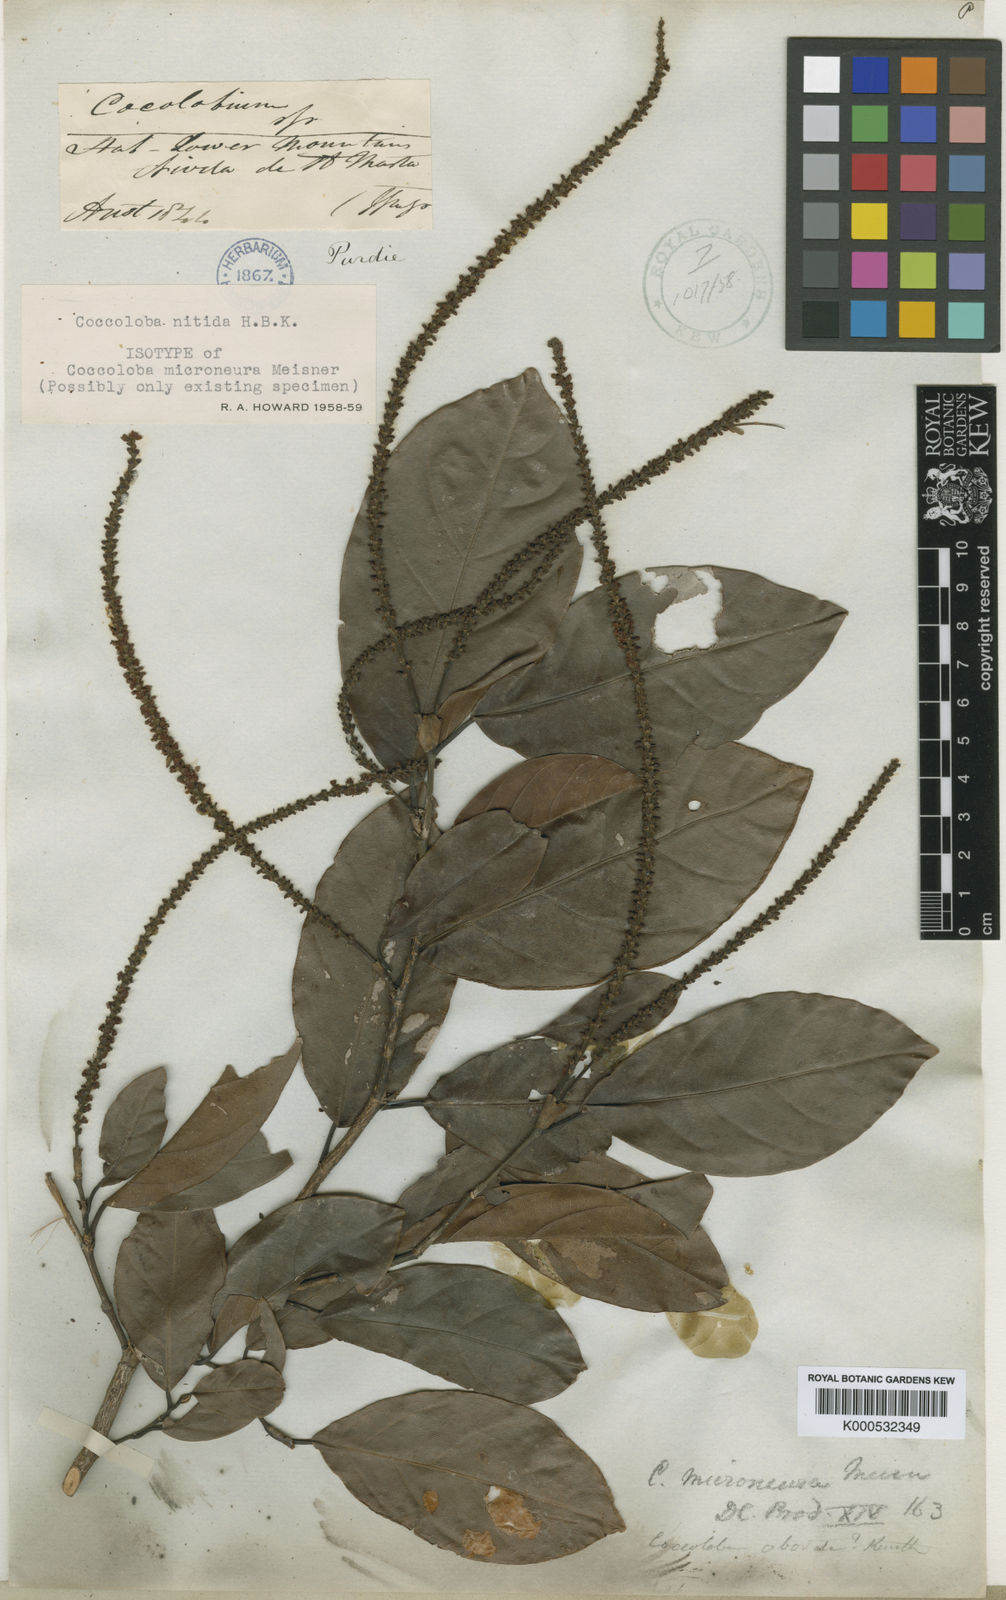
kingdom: Plantae
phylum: Tracheophyta
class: Magnoliopsida
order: Caryophyllales
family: Polygonaceae
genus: Coccoloba
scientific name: Coccoloba nitida
